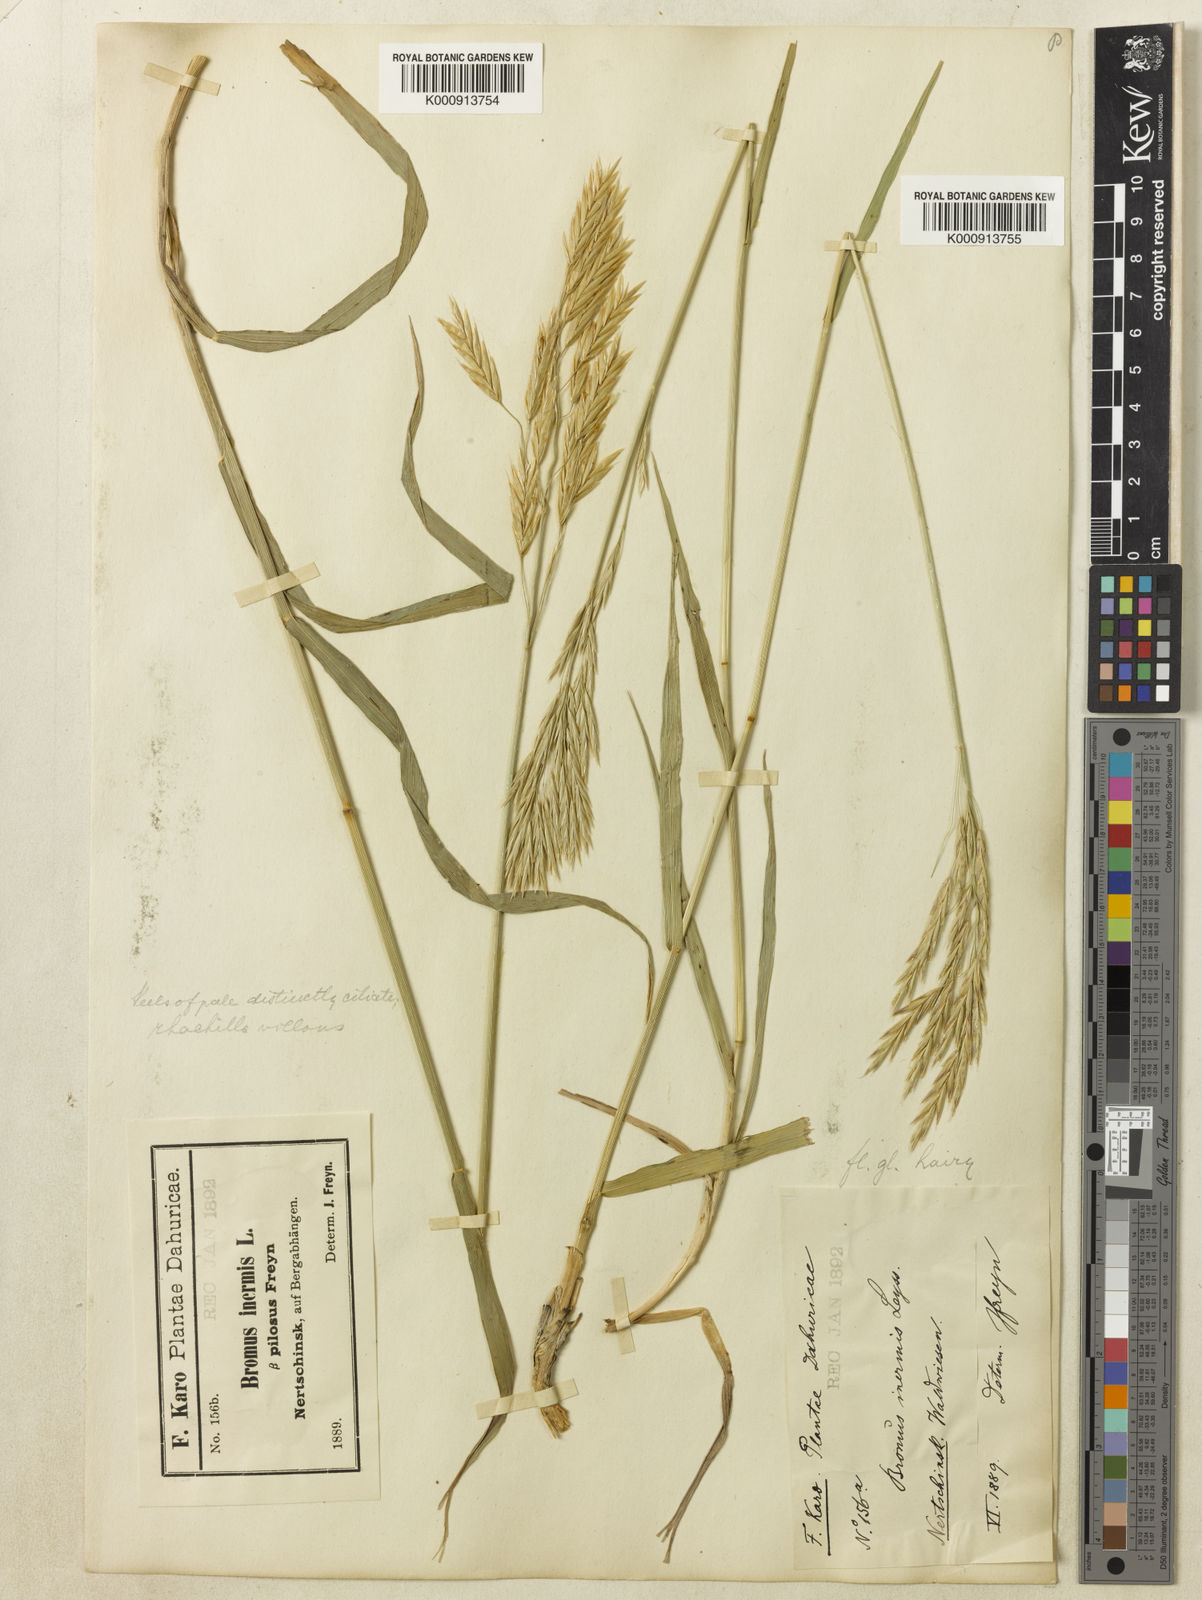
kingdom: Plantae
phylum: Tracheophyta
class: Liliopsida
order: Poales
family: Poaceae
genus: Bromus
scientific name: Bromus ciliatus
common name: Fringe brome
